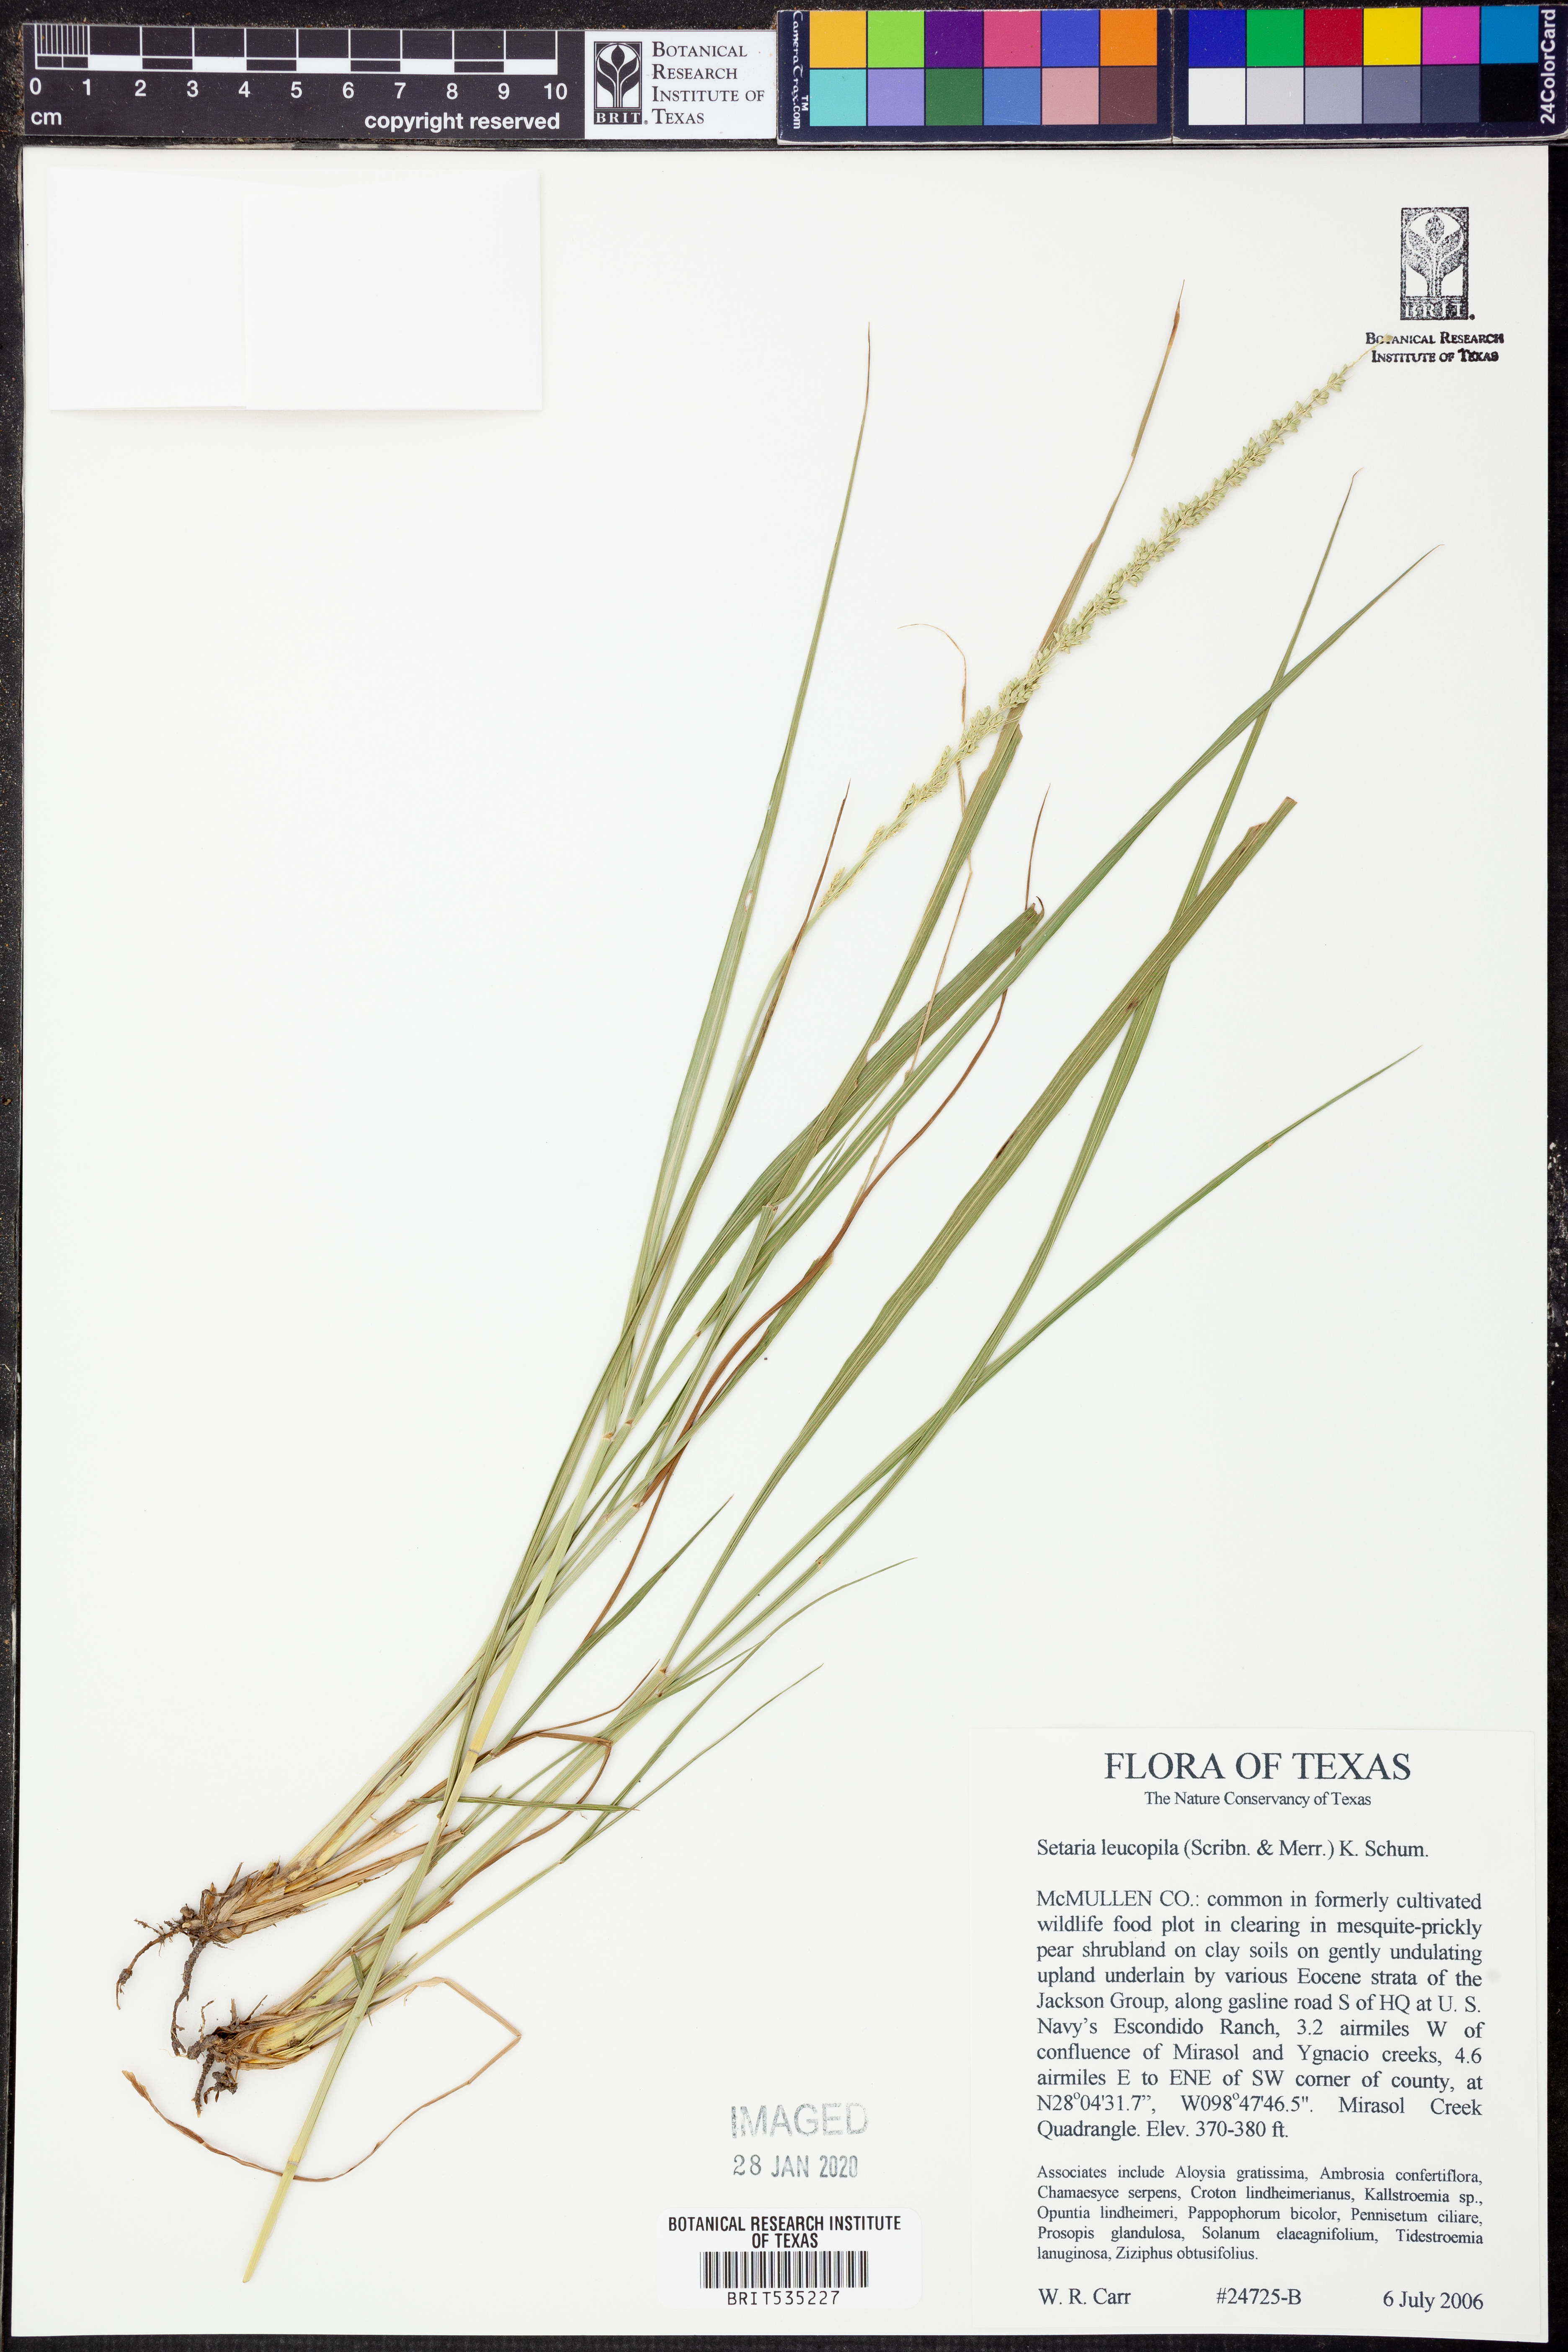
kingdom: Plantae
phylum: Tracheophyta
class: Liliopsida
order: Poales
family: Poaceae
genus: Setaria
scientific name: Setaria leucopila
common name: Plains bristle grass
